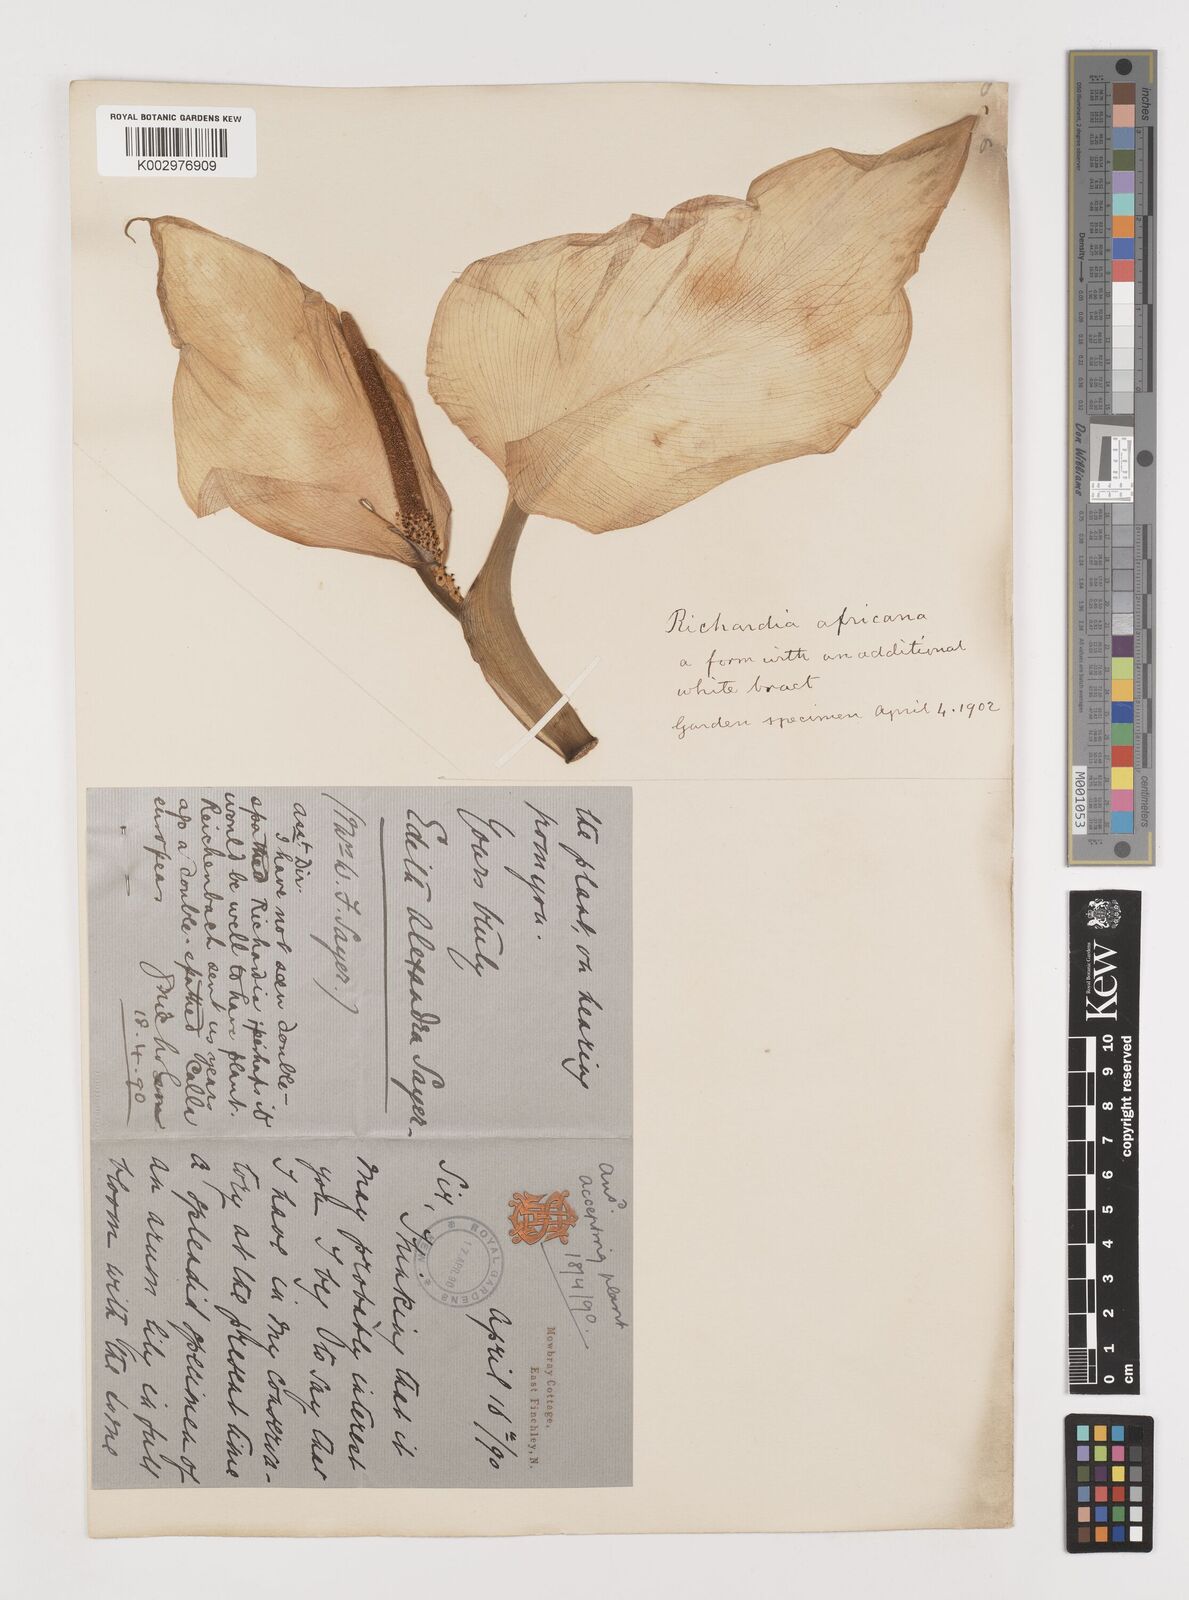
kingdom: Plantae
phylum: Tracheophyta
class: Liliopsida
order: Alismatales
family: Araceae
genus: Zantedeschia
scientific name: Zantedeschia aethiopica
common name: Altar-lily
